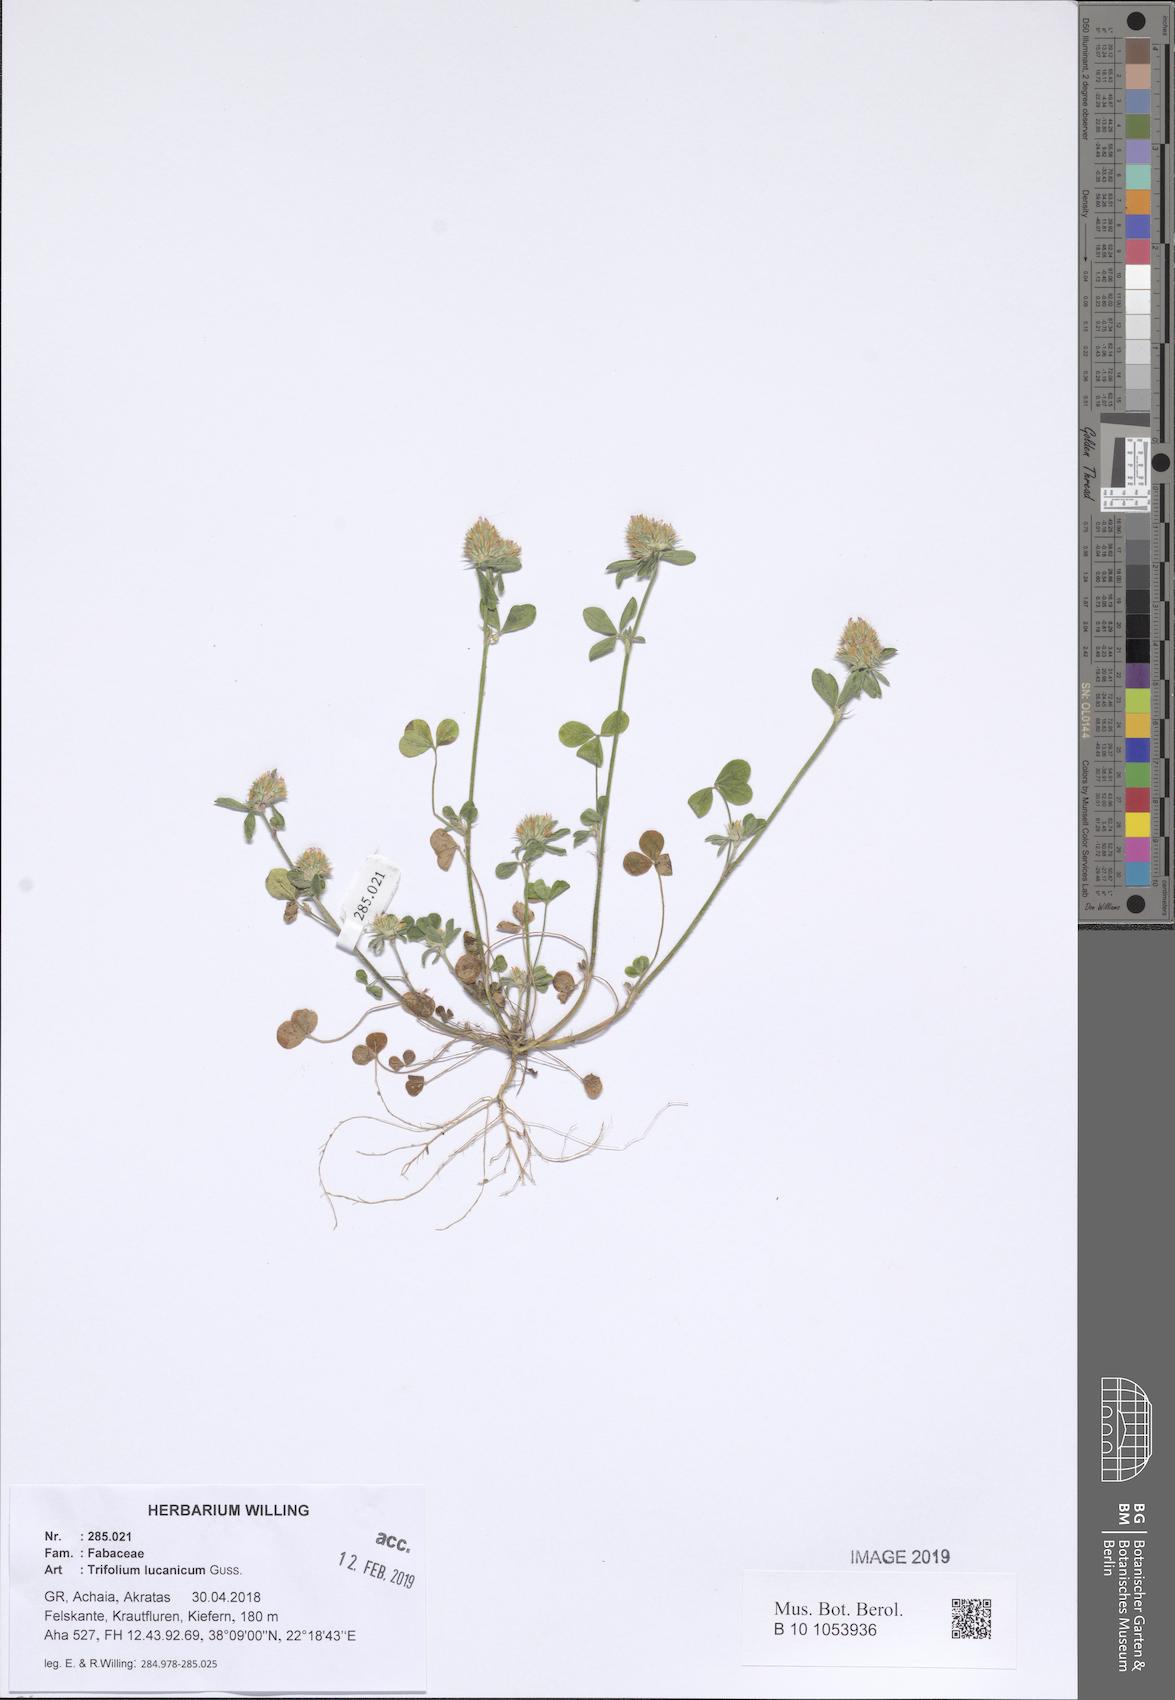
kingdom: Plantae
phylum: Tracheophyta
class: Magnoliopsida
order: Fabales
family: Fabaceae
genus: Trifolium
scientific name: Trifolium lucanicum
